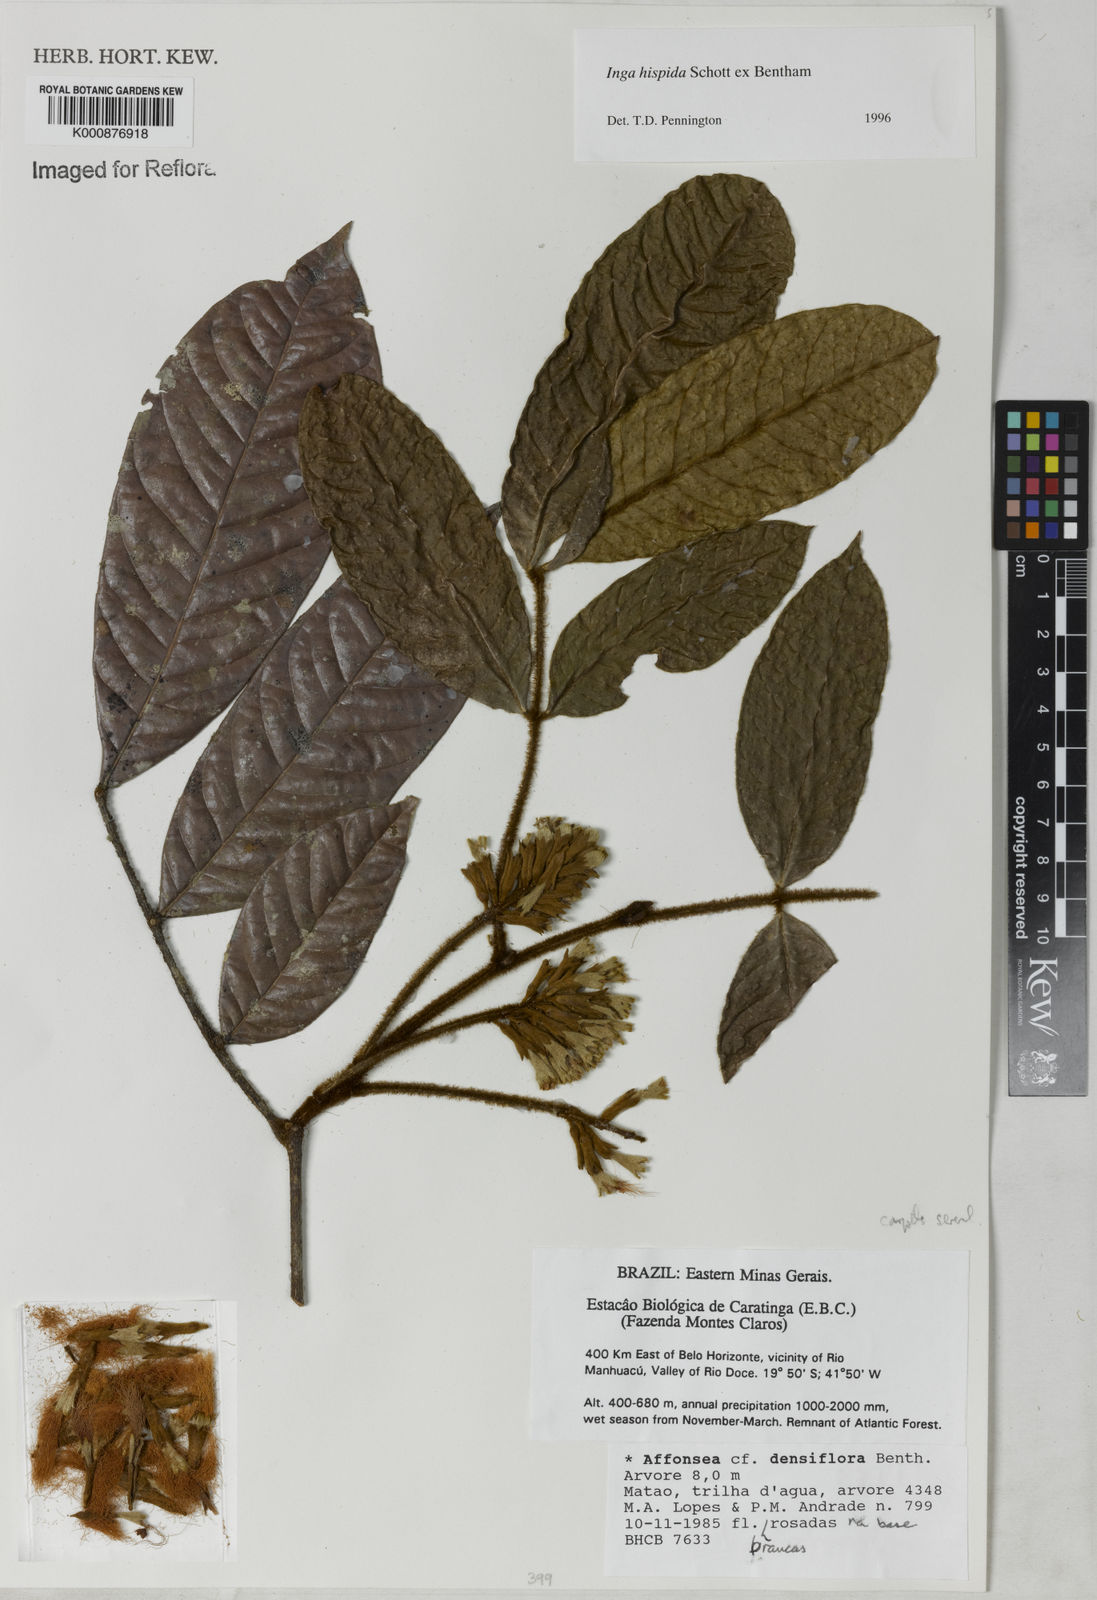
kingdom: Plantae
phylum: Tracheophyta
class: Magnoliopsida
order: Fabales
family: Fabaceae
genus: Inga
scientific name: Inga hispida
